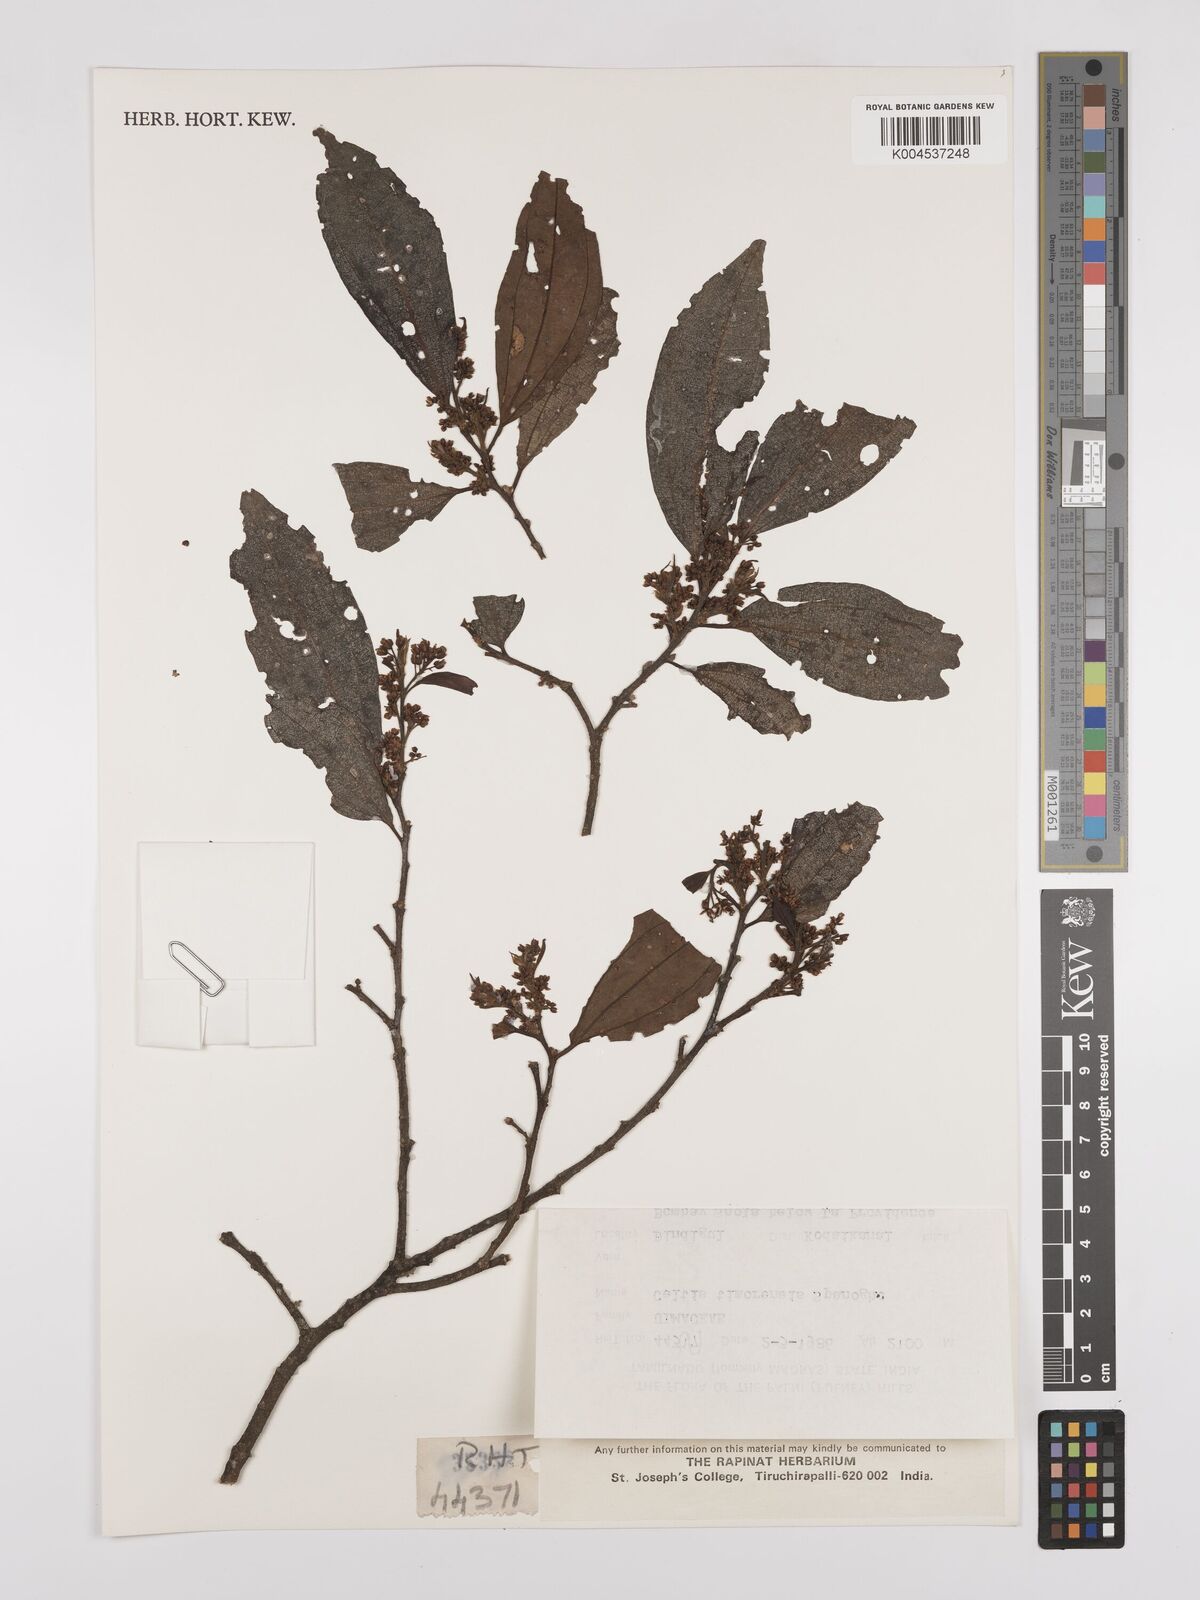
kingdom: Plantae
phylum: Tracheophyta
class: Magnoliopsida
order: Rosales
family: Cannabaceae
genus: Celtis
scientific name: Celtis timorensis
